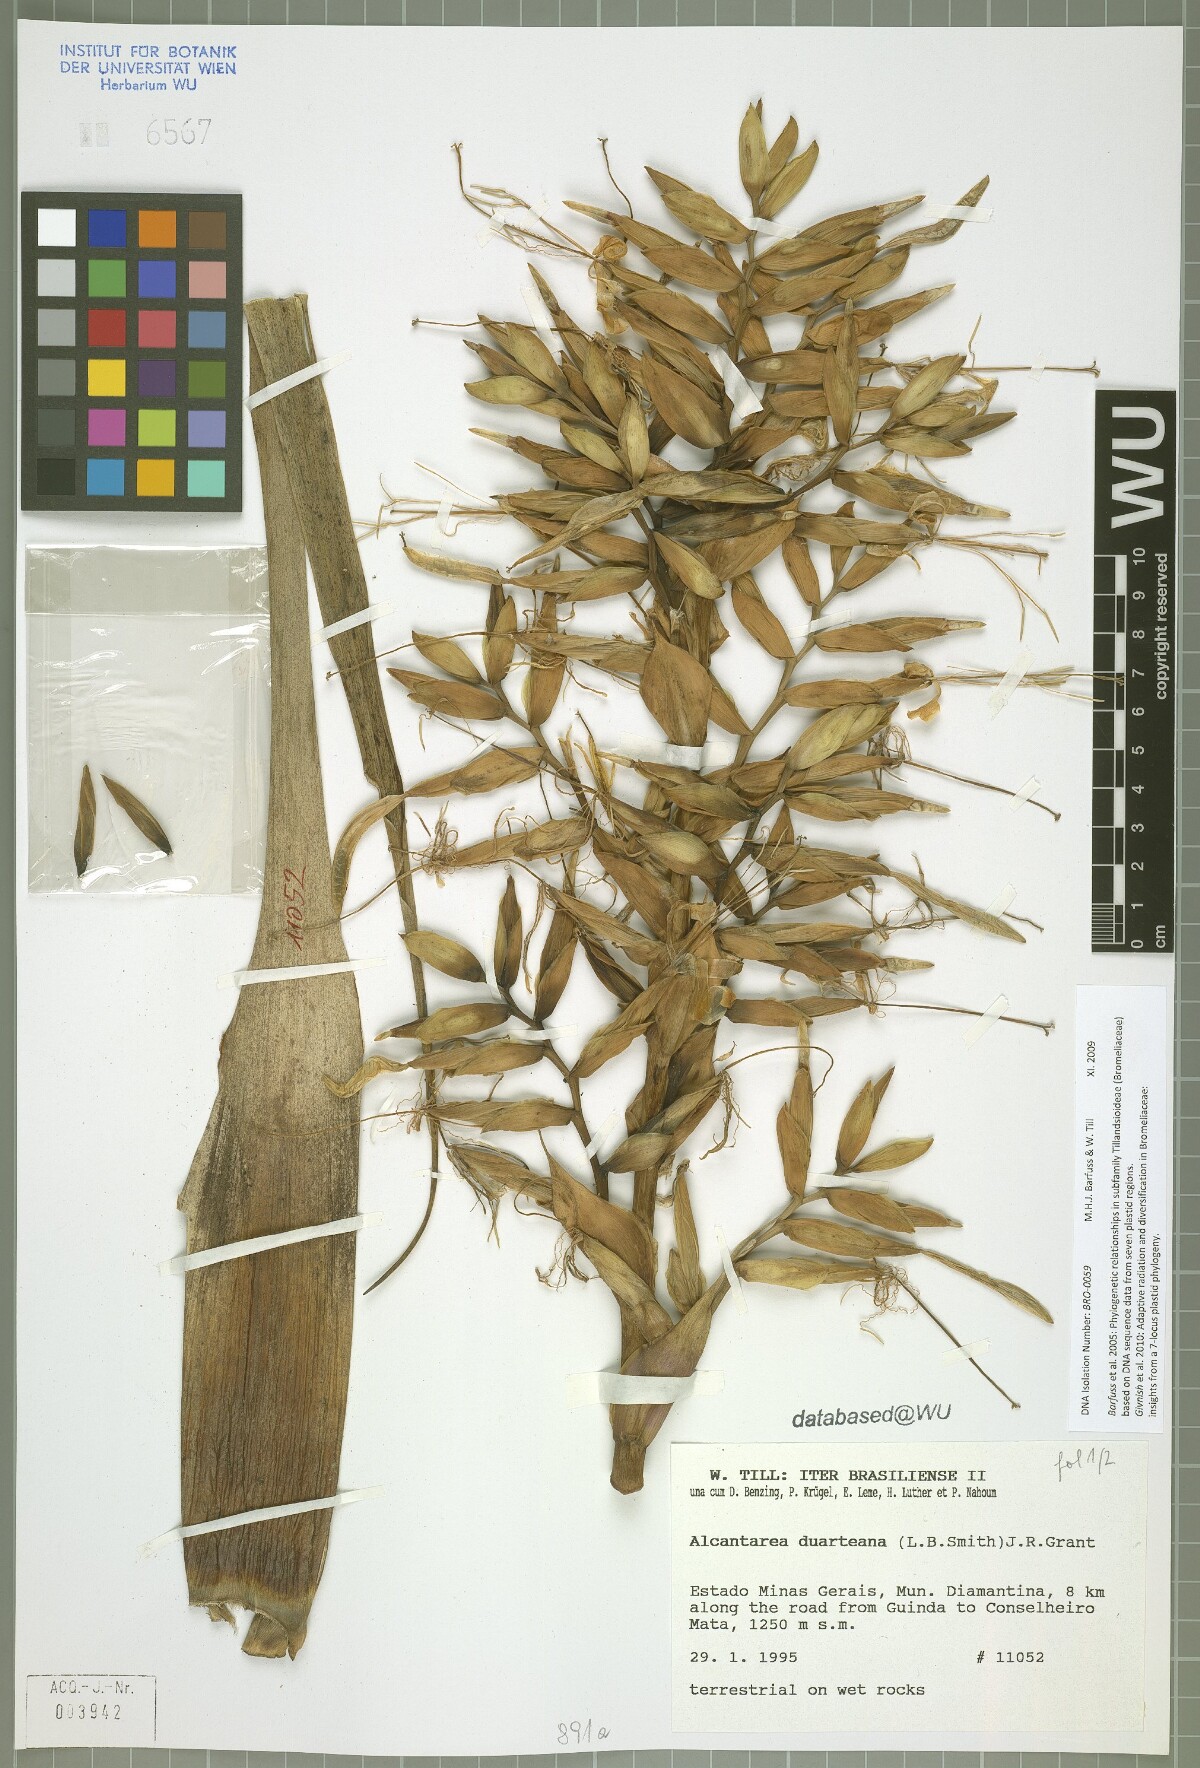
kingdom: Plantae
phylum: Tracheophyta
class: Liliopsida
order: Poales
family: Bromeliaceae
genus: Alcantarea
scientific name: Alcantarea duarteana
